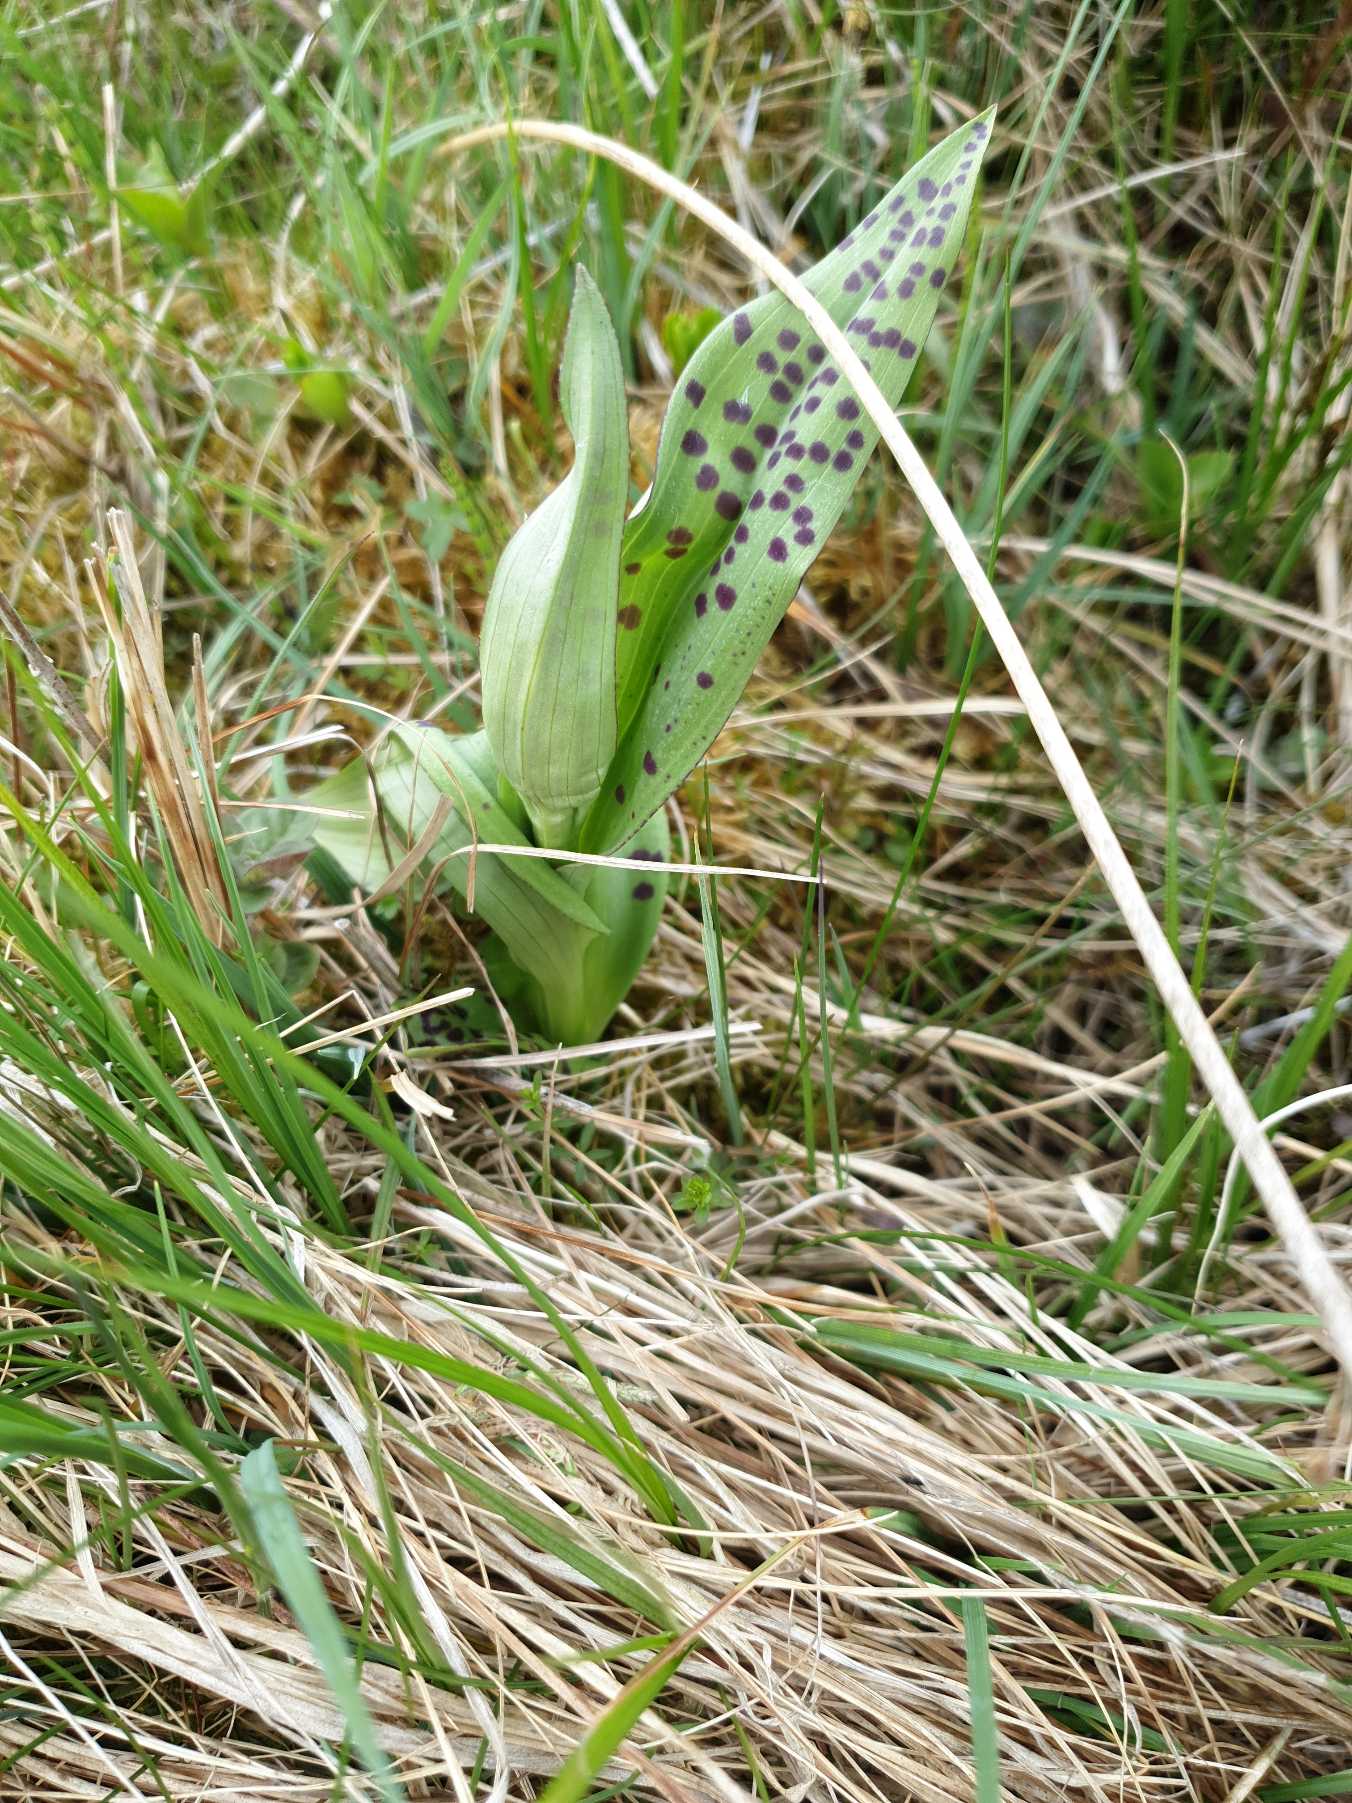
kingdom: Plantae
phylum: Tracheophyta
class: Liliopsida
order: Asparagales
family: Orchidaceae
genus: Dactylorhiza
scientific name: Dactylorhiza maculata
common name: Plettet gøgeurt
